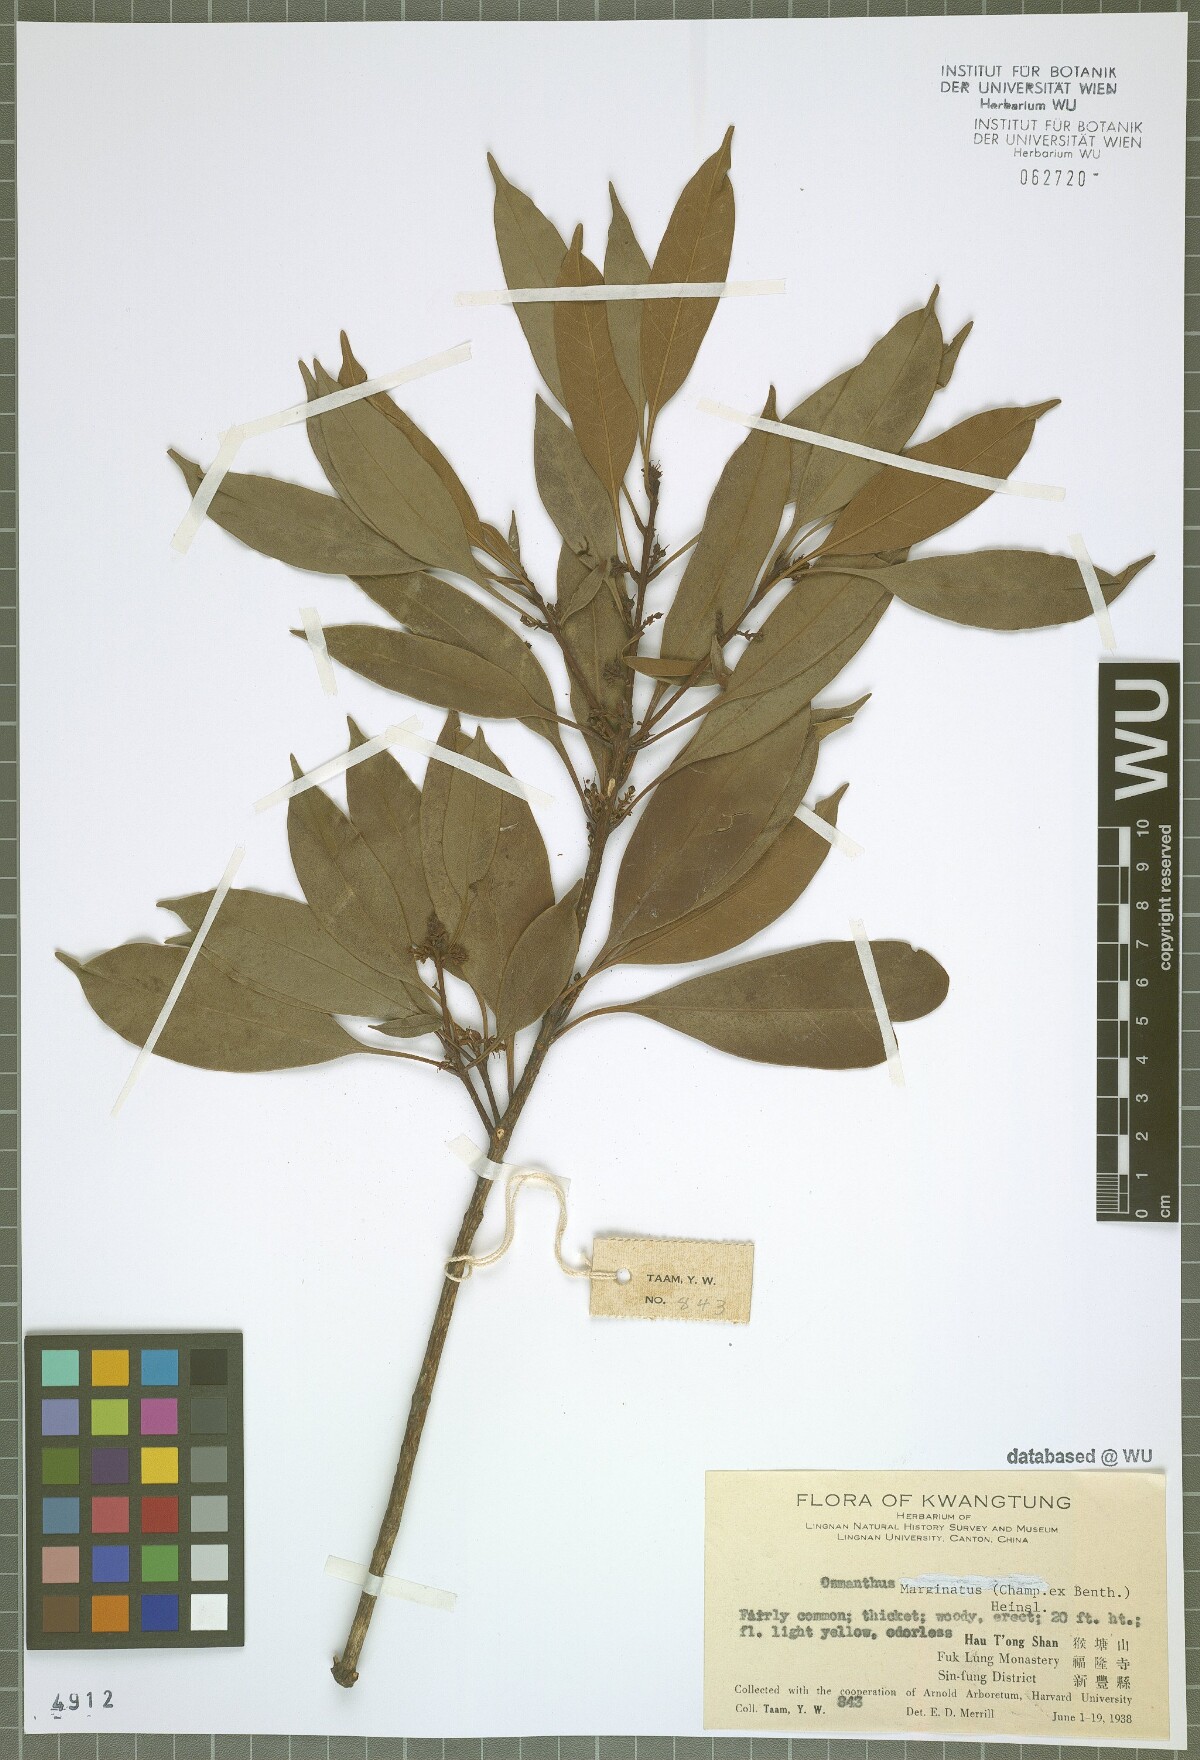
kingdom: Plantae
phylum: Tracheophyta
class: Magnoliopsida
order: Lamiales
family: Oleaceae
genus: Chengiodendron
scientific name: Chengiodendron marginatum
